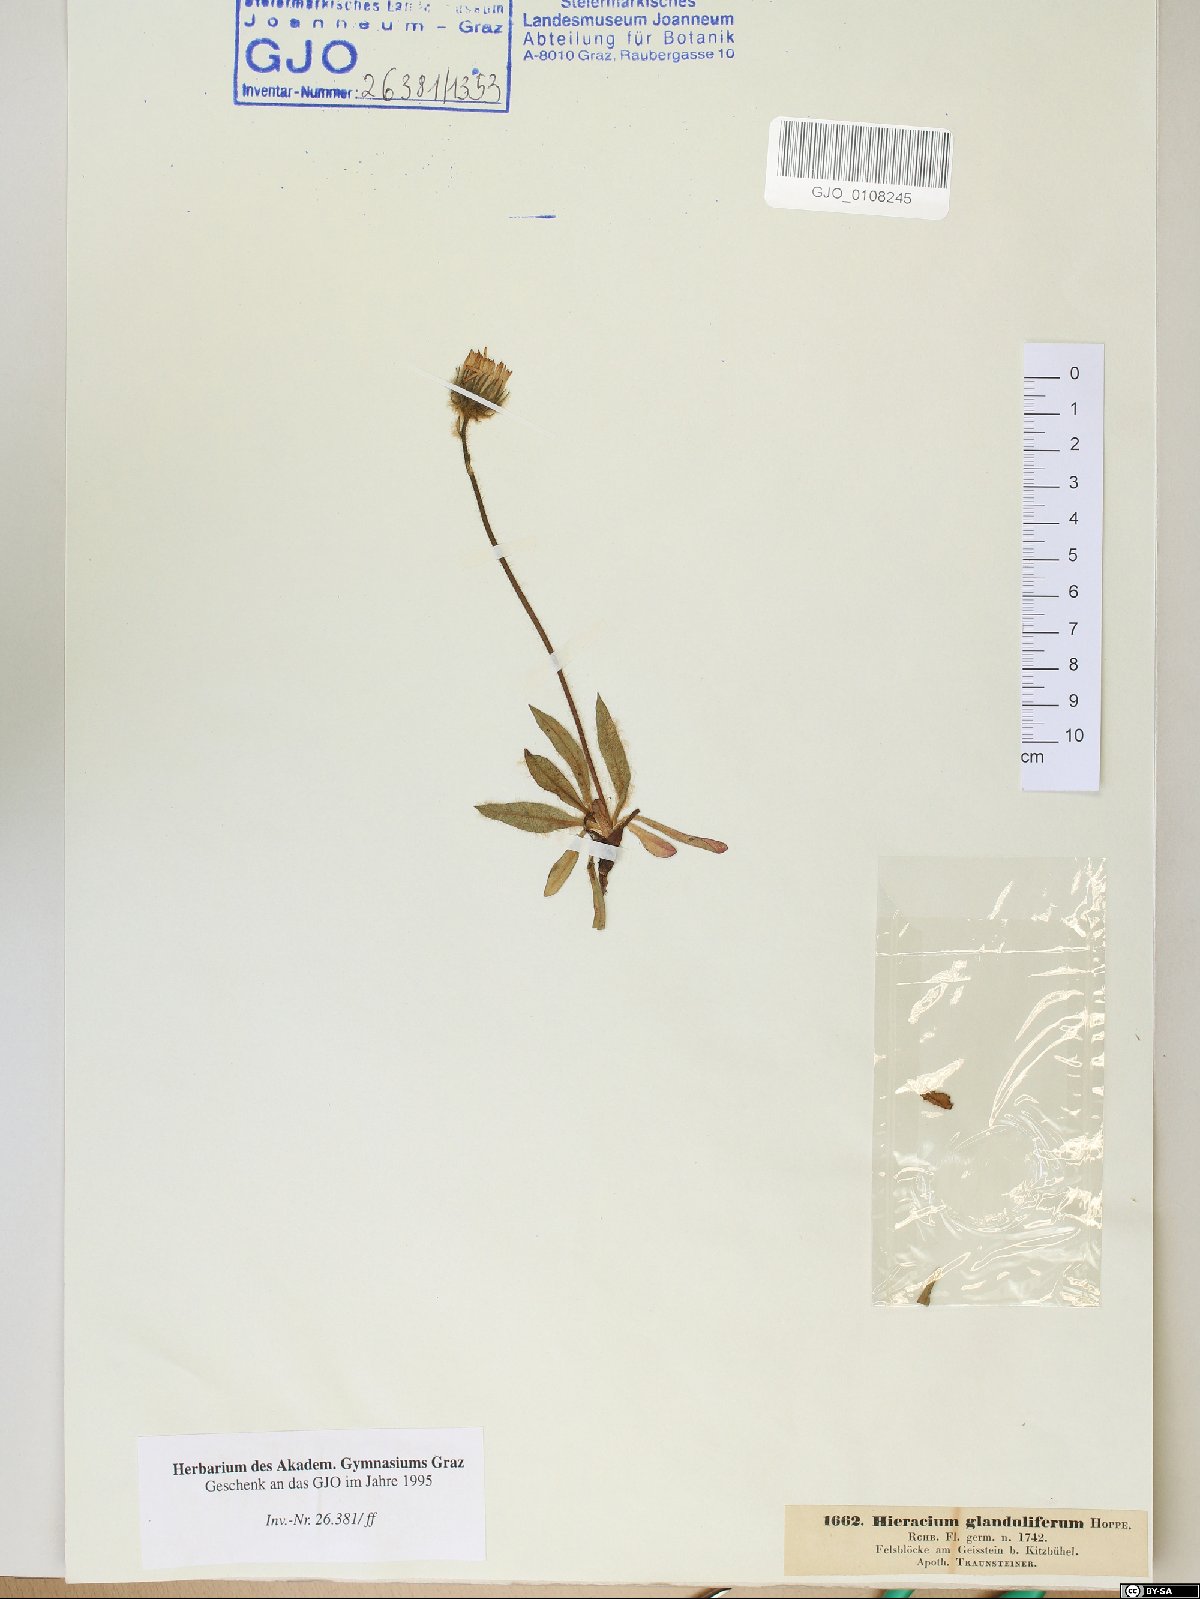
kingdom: Plantae
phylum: Tracheophyta
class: Magnoliopsida
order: Asterales
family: Asteraceae
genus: Hieracium
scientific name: Hieracium piliferum
